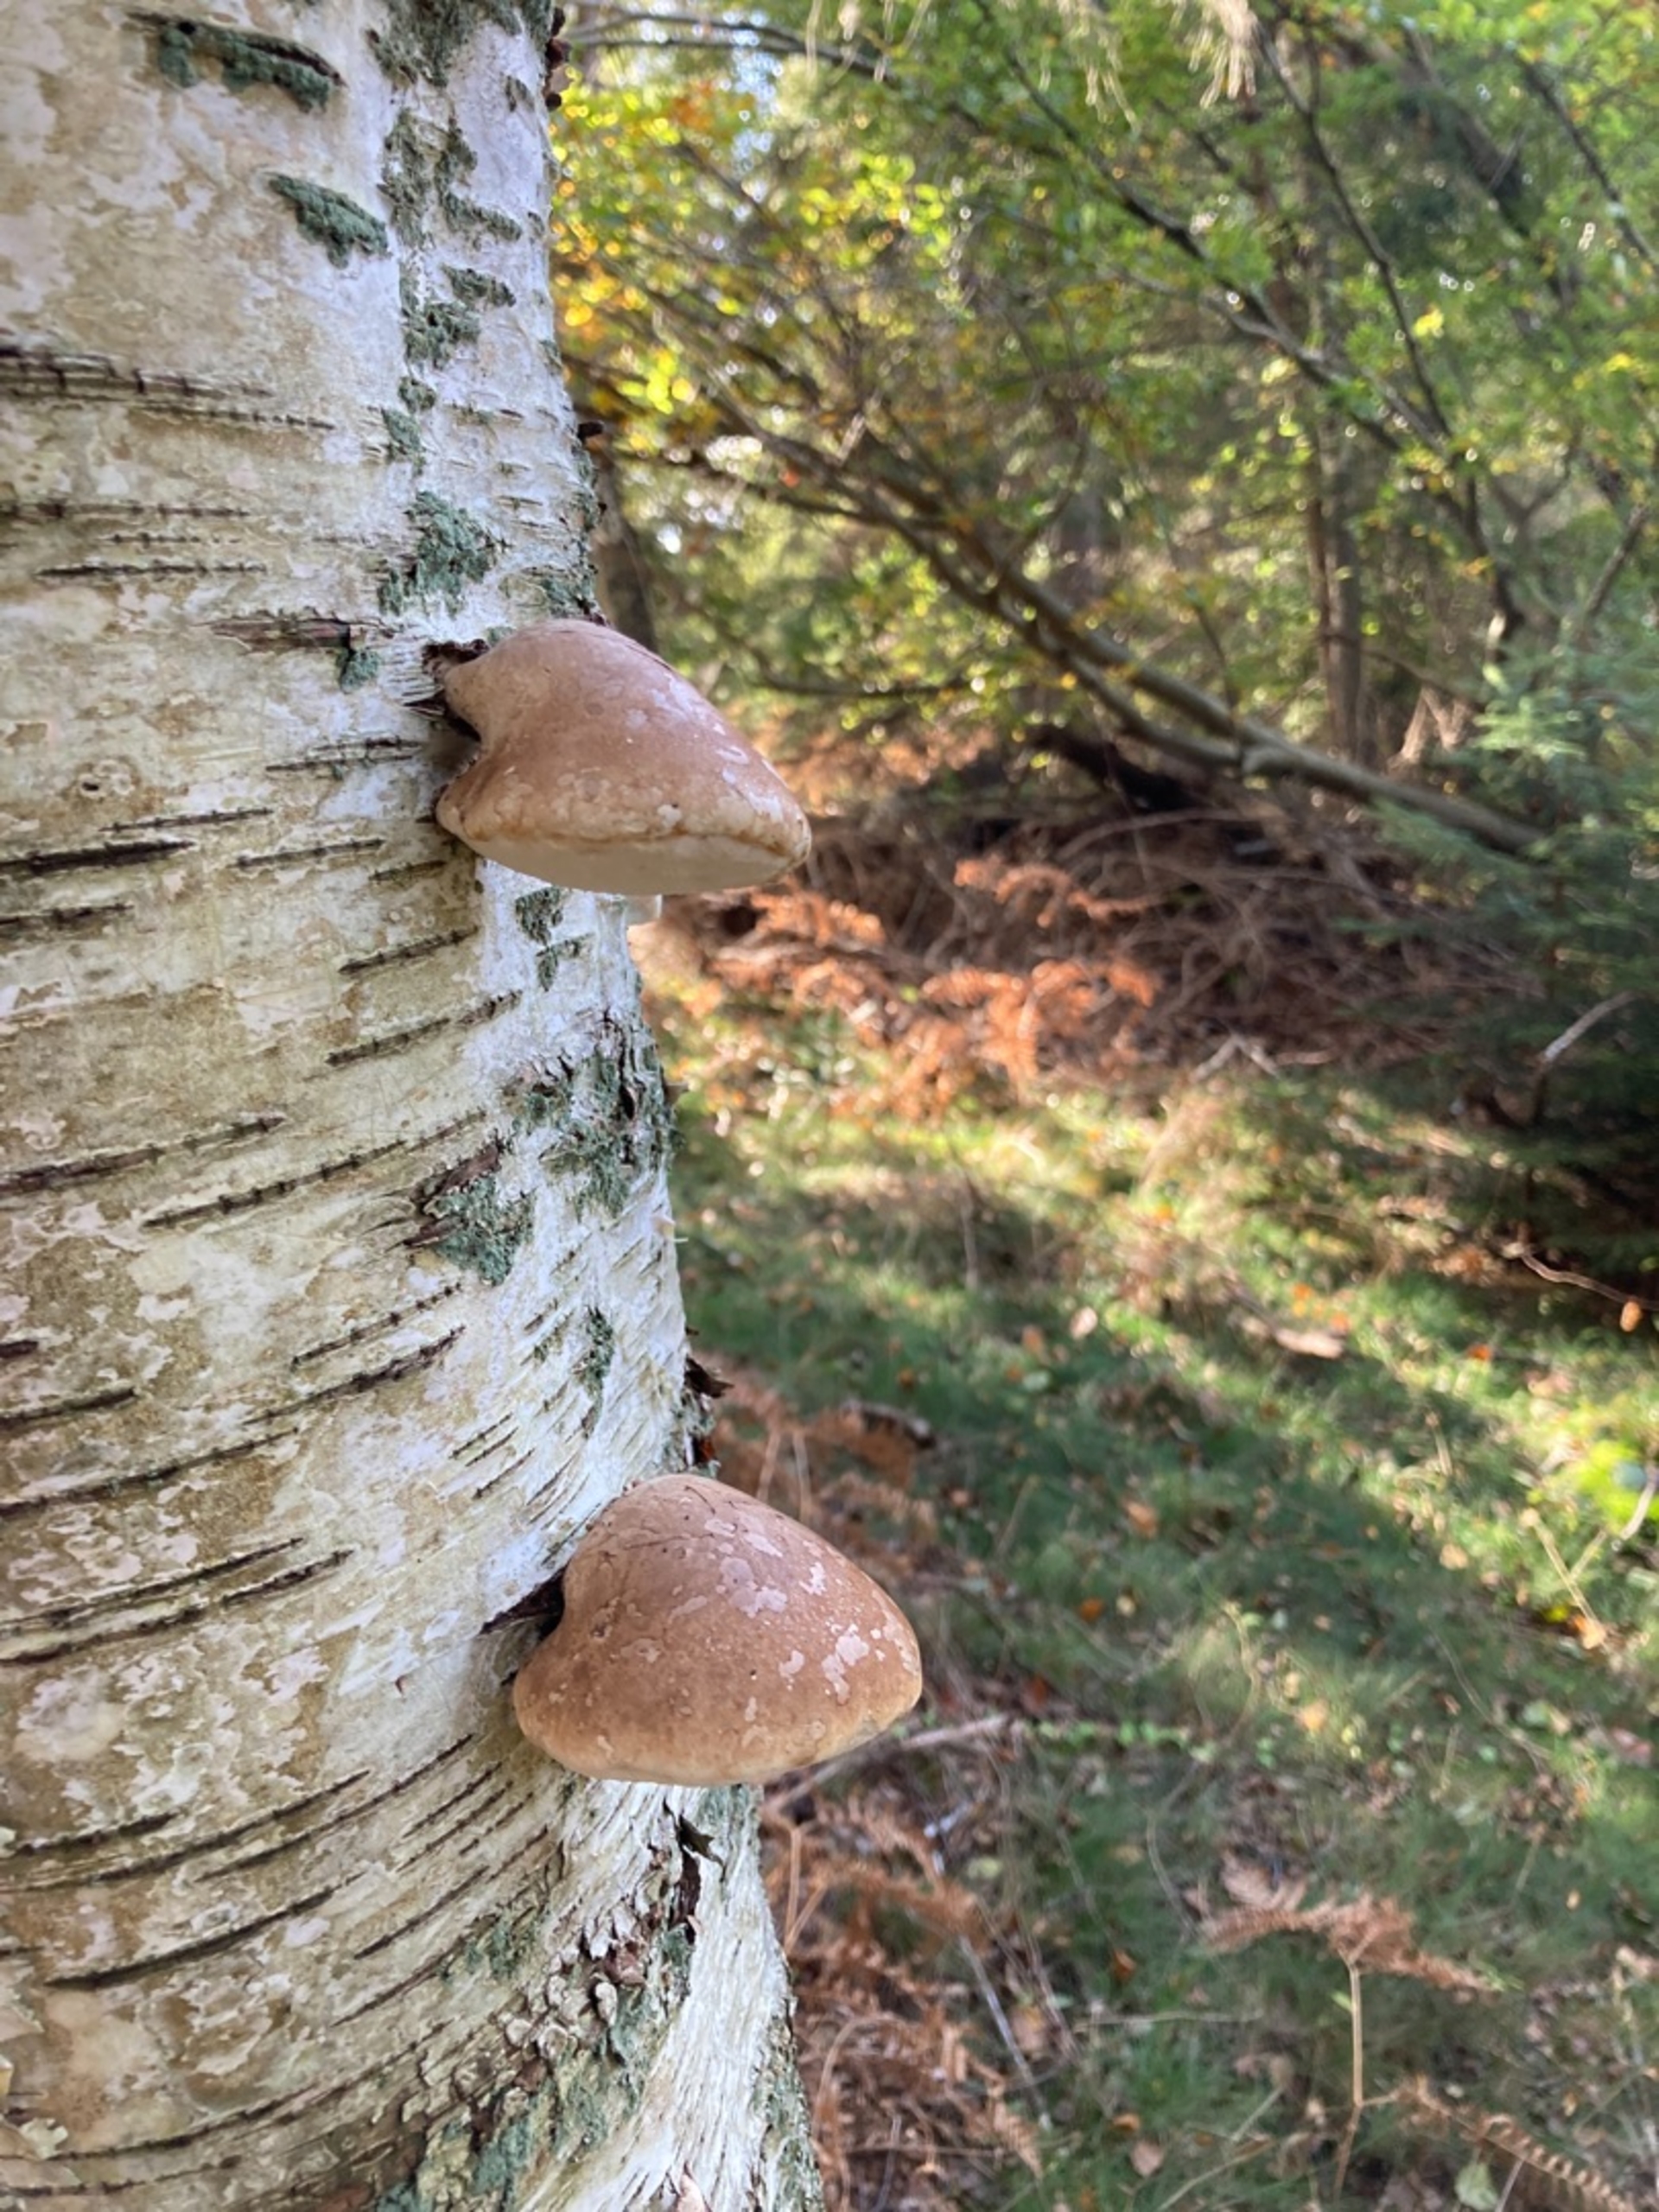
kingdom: Fungi
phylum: Basidiomycota
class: Agaricomycetes
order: Polyporales
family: Fomitopsidaceae
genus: Fomitopsis
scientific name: Fomitopsis betulina
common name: Birkeporesvamp
